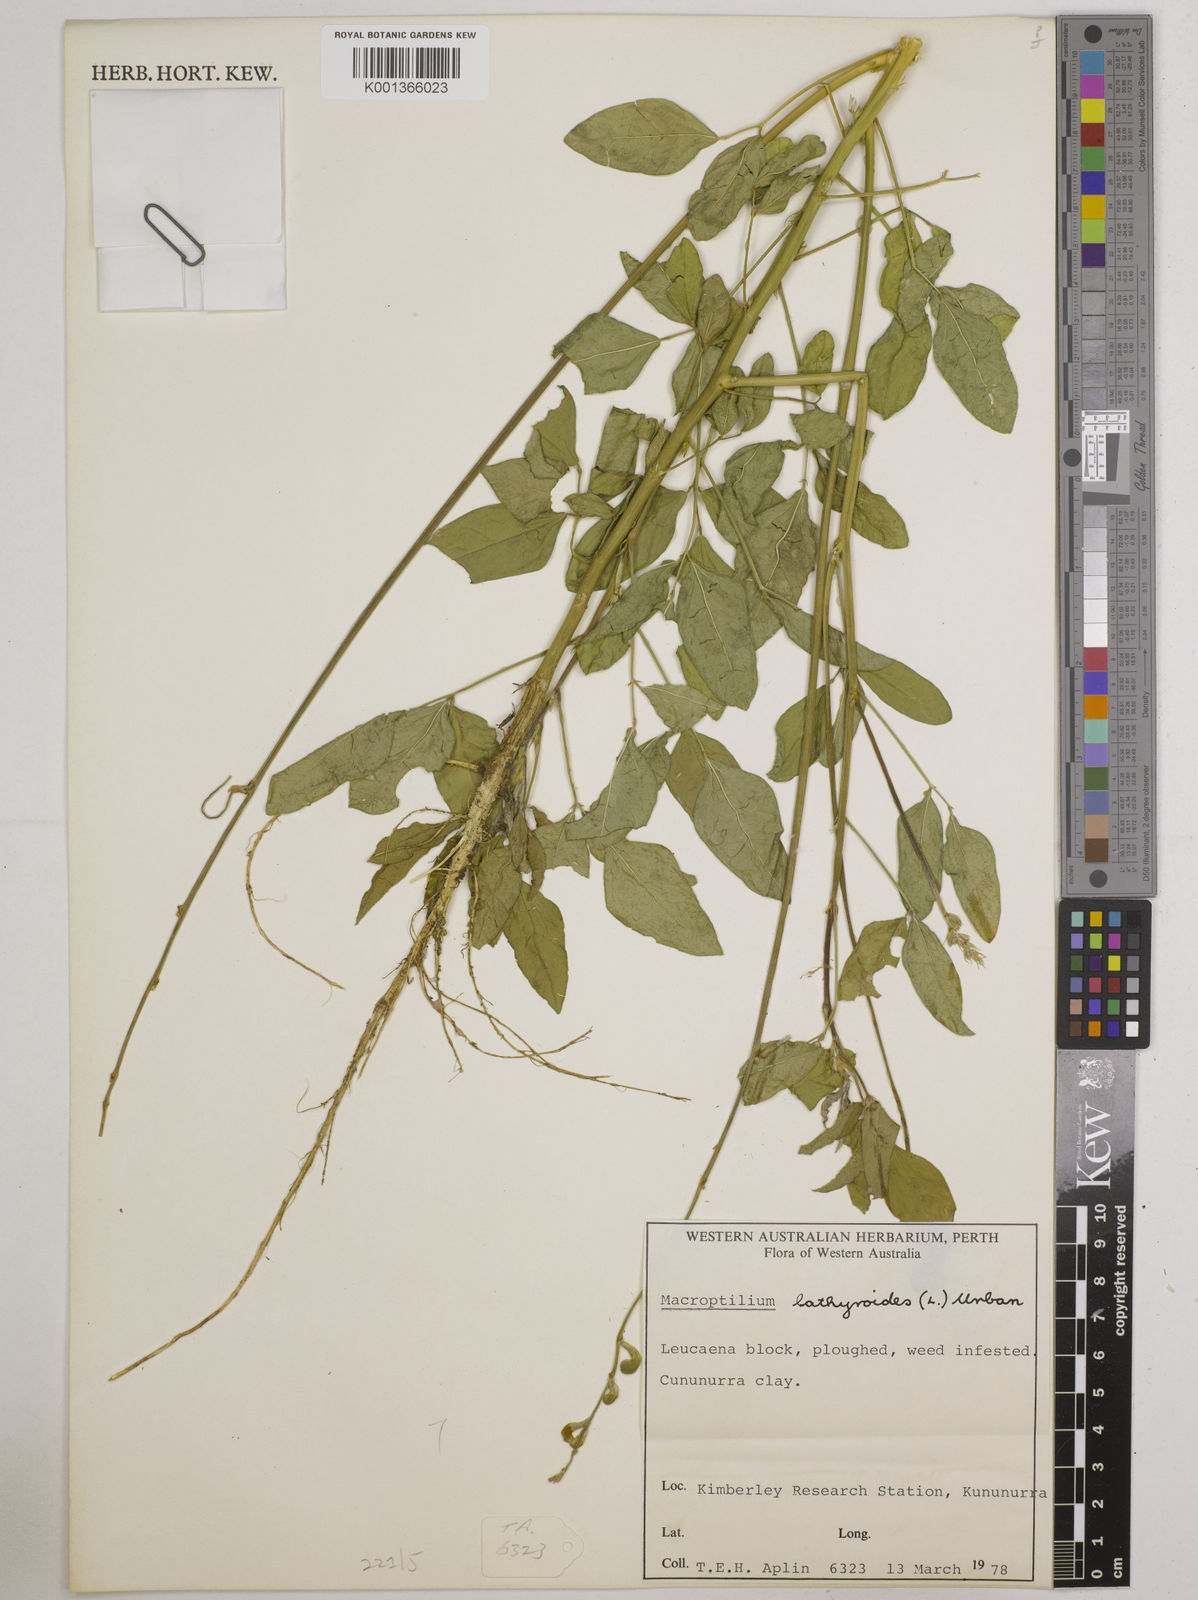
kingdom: Plantae
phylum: Tracheophyta
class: Magnoliopsida
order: Fabales
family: Fabaceae
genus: Macroptilium
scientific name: Macroptilium lathyroides
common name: Wild bushbean
